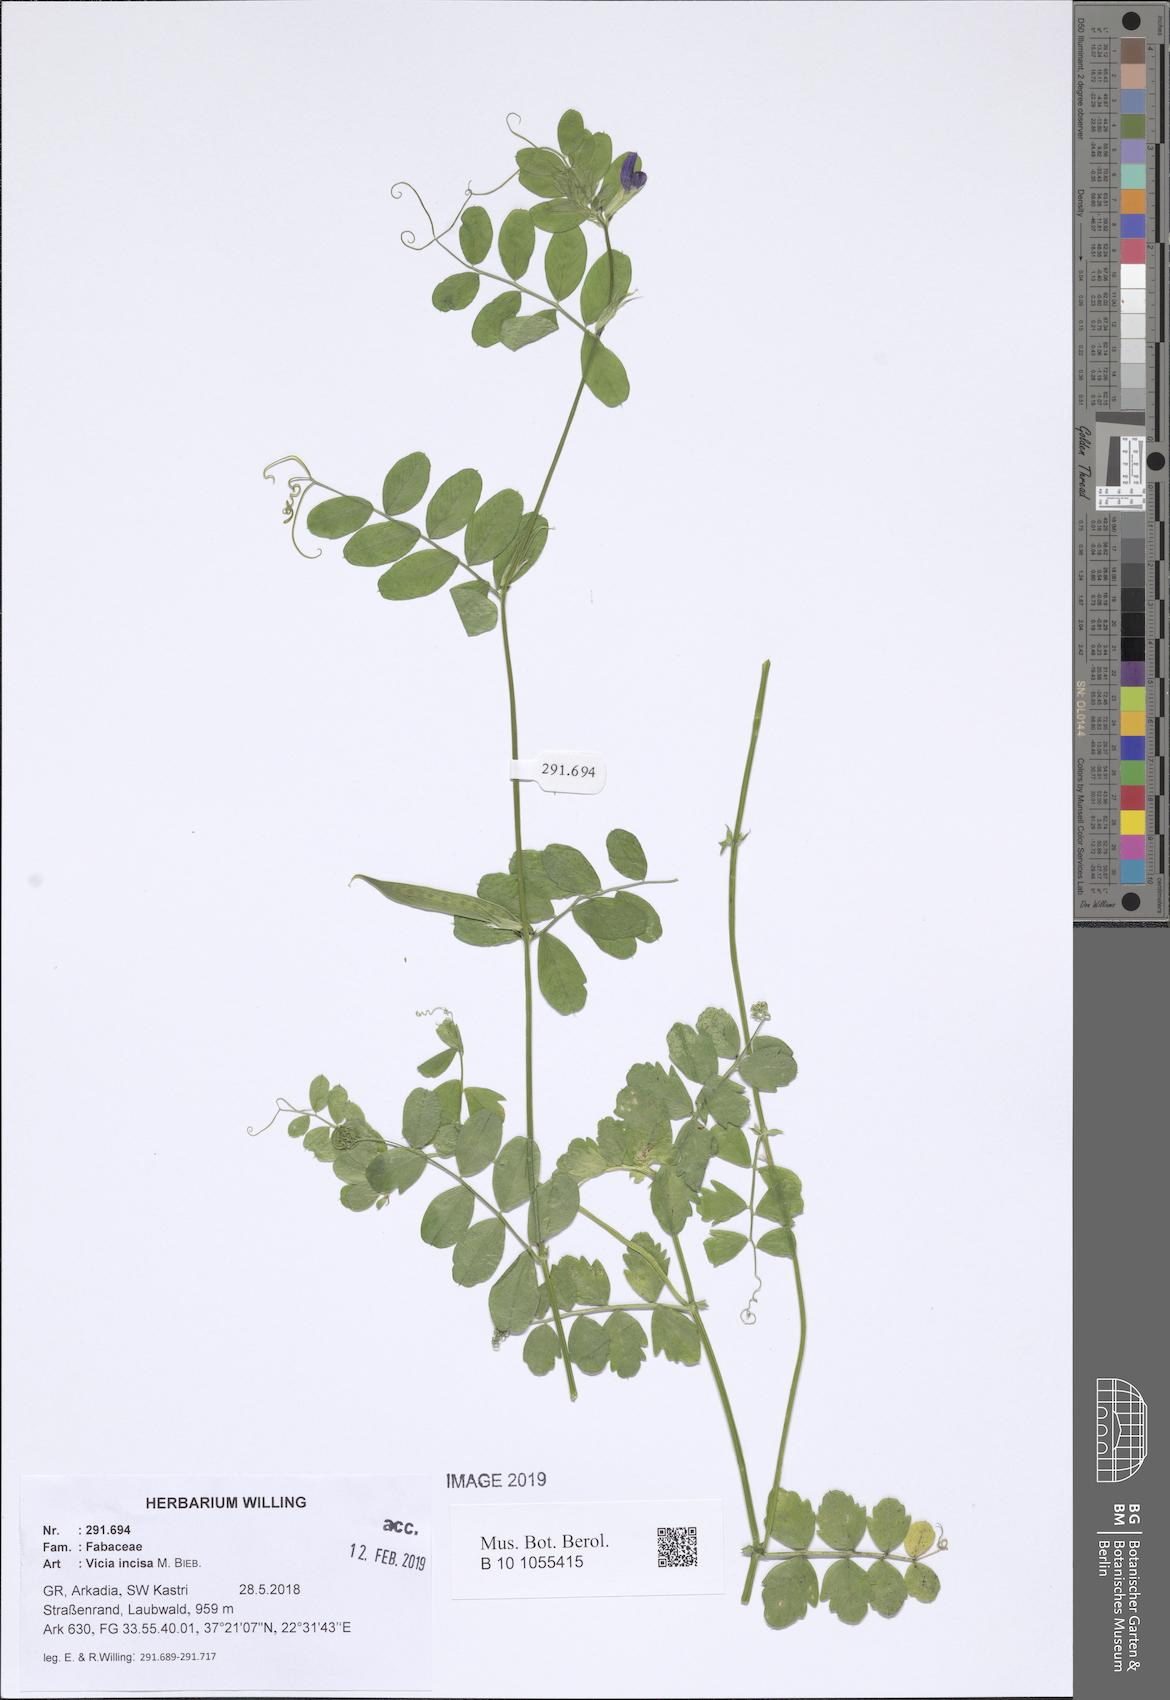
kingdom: Plantae
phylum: Tracheophyta
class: Magnoliopsida
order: Fabales
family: Fabaceae
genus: Vicia
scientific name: Vicia sativa
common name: Garden vetch
